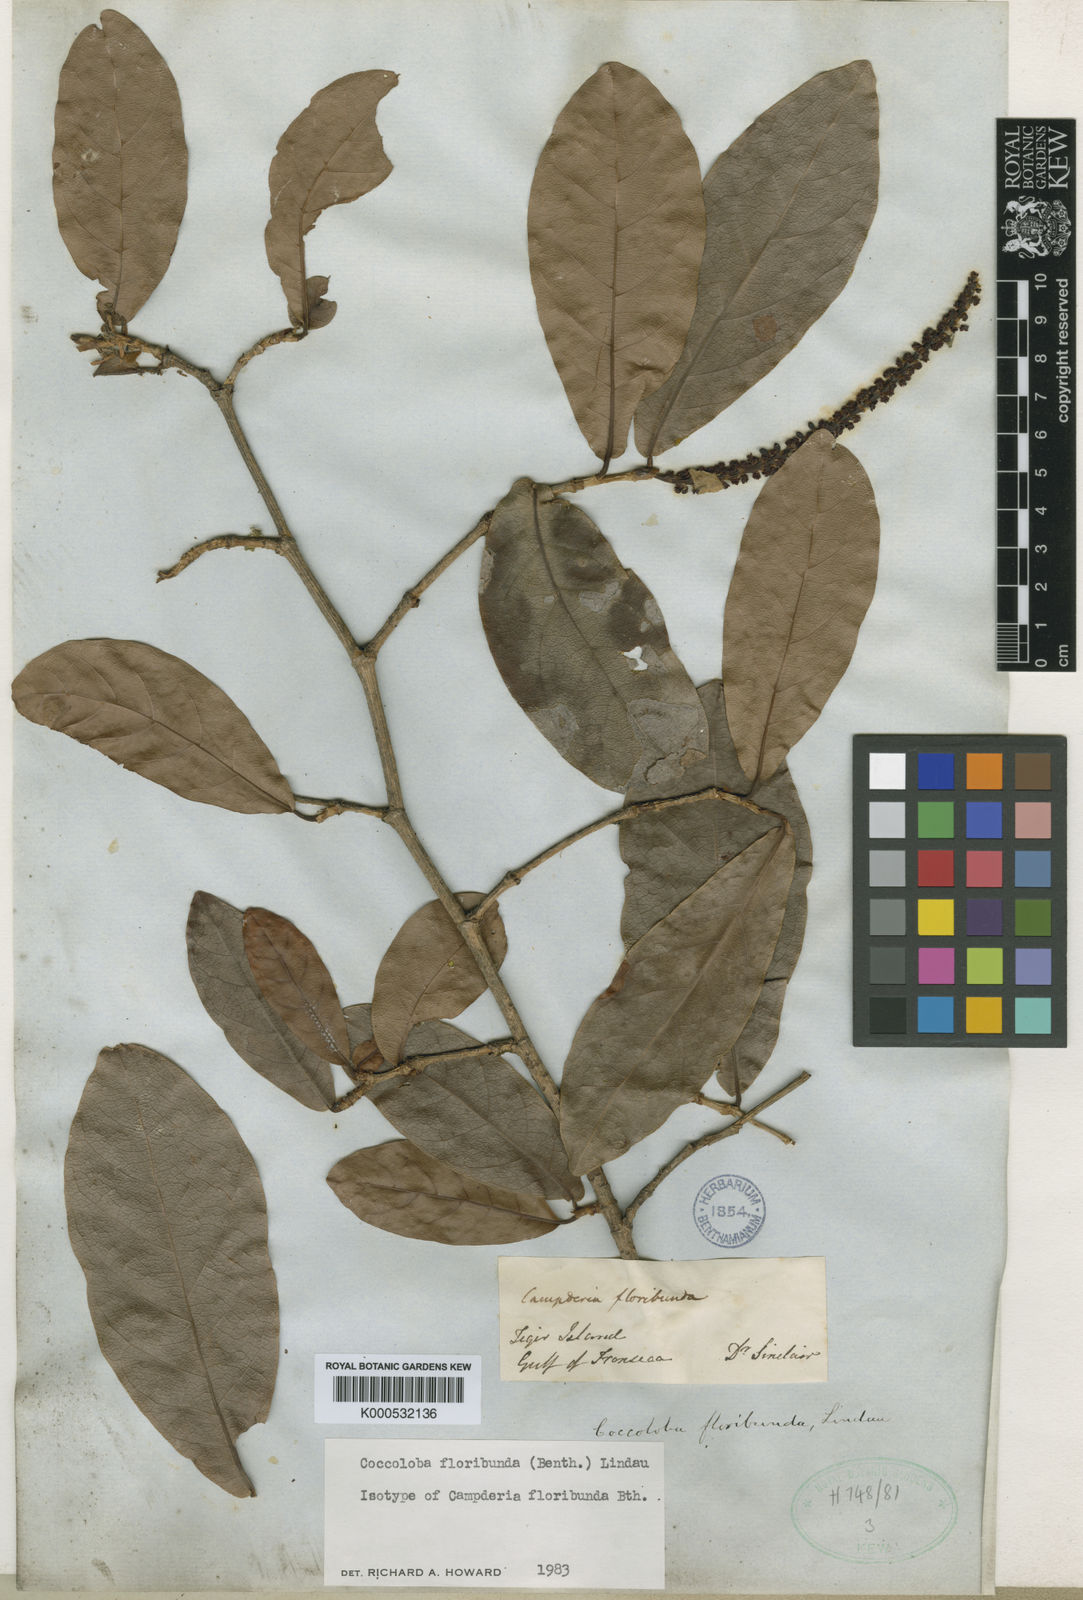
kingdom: Plantae
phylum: Tracheophyta
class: Magnoliopsida
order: Caryophyllales
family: Polygonaceae
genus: Coccoloba
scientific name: Coccoloba floribunda
